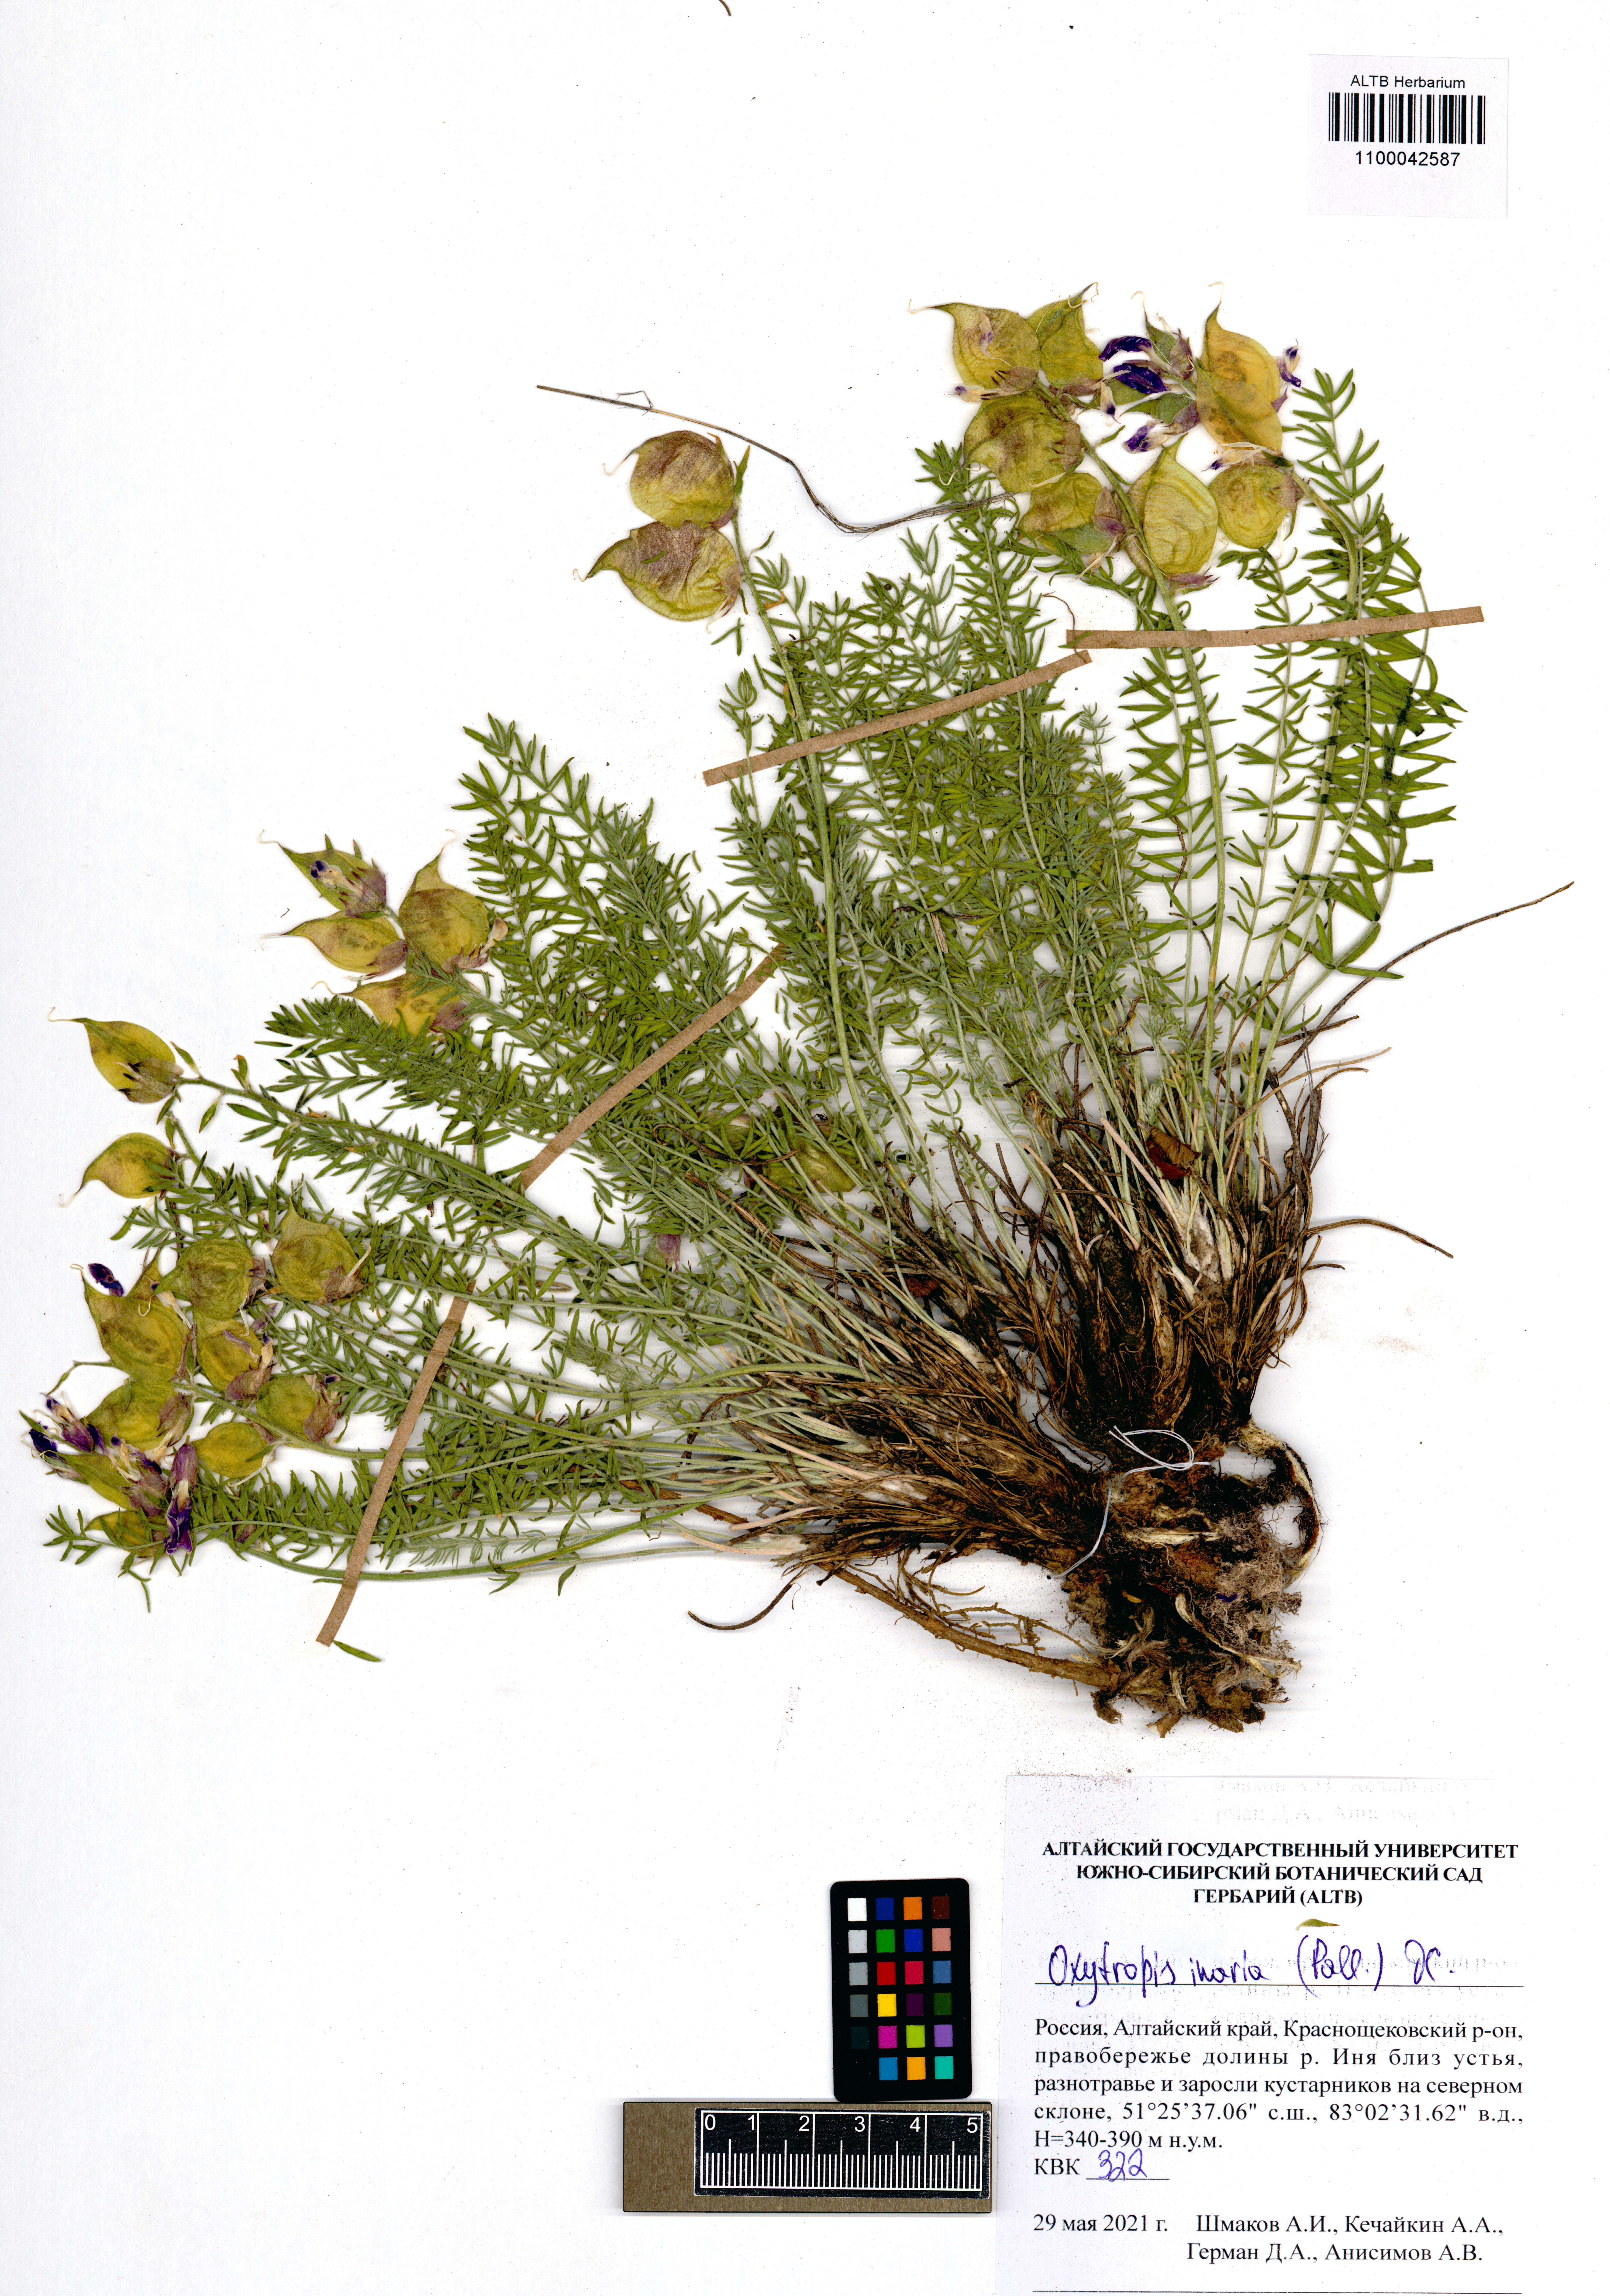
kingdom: Plantae
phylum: Tracheophyta
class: Magnoliopsida
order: Fabales
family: Fabaceae
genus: Oxytropis
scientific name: Oxytropis inaria
